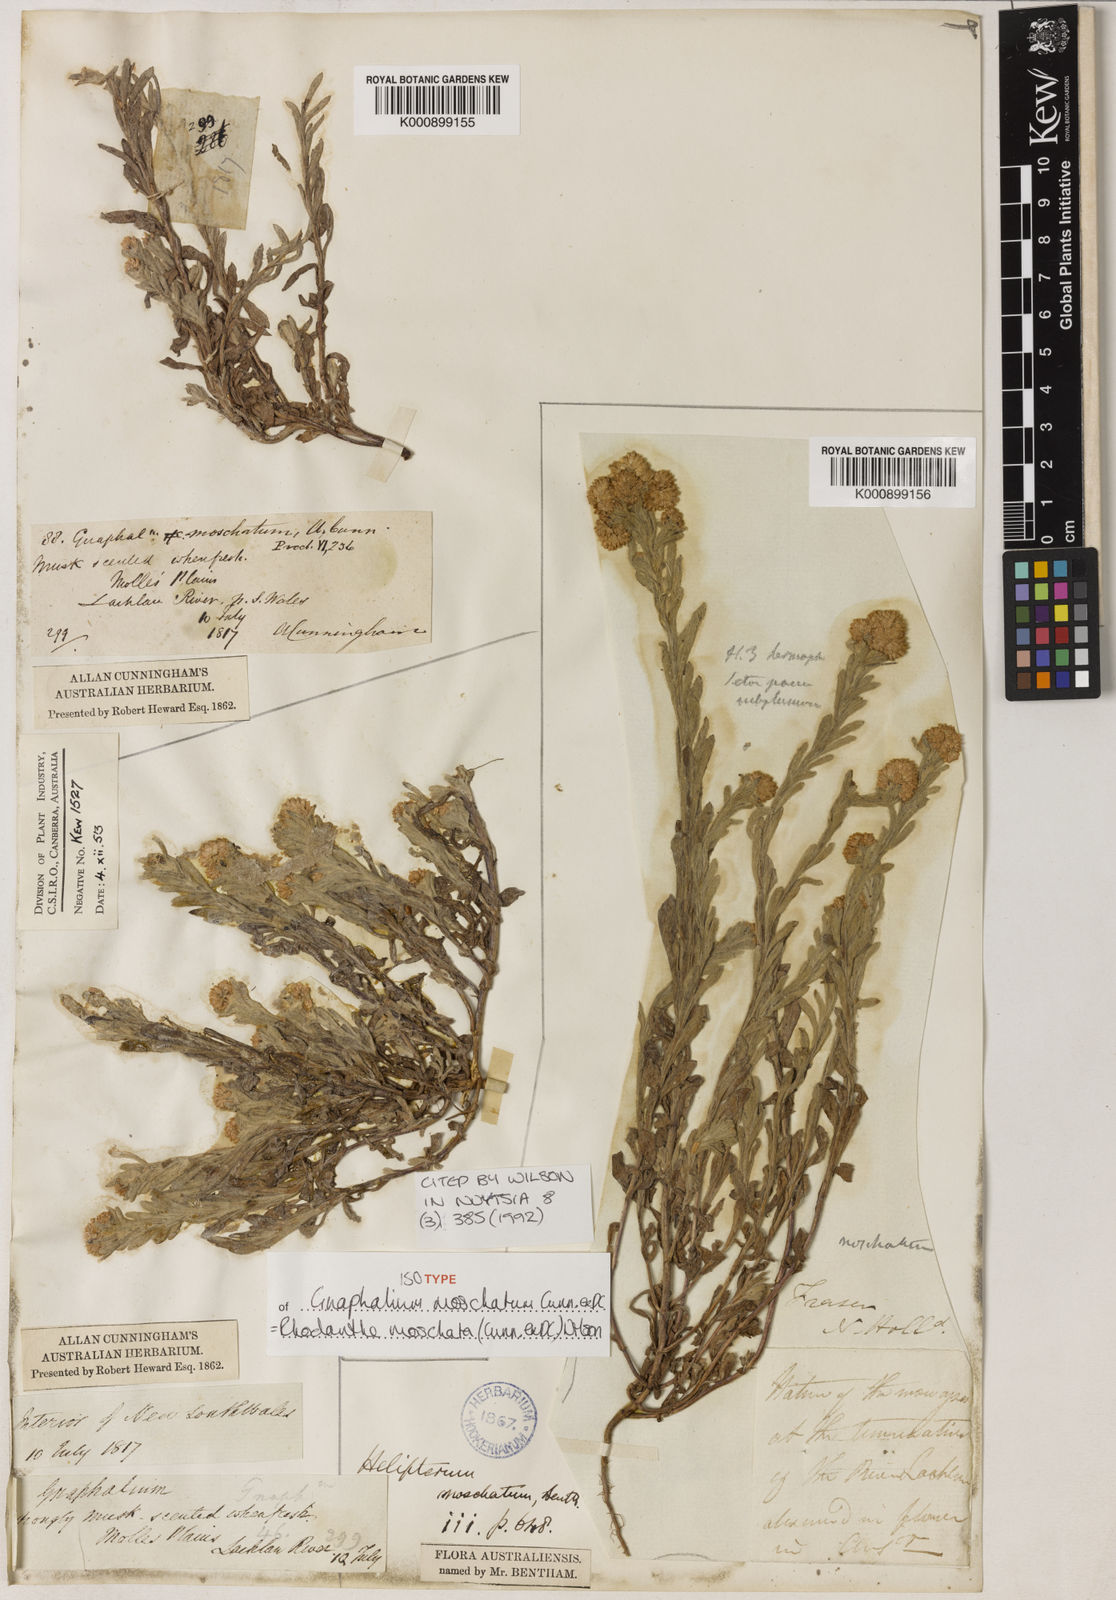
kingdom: Plantae
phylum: Tracheophyta
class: Magnoliopsida
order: Asterales
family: Asteraceae
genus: Rhodanthe
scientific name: Rhodanthe moschata
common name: Musk sunray
